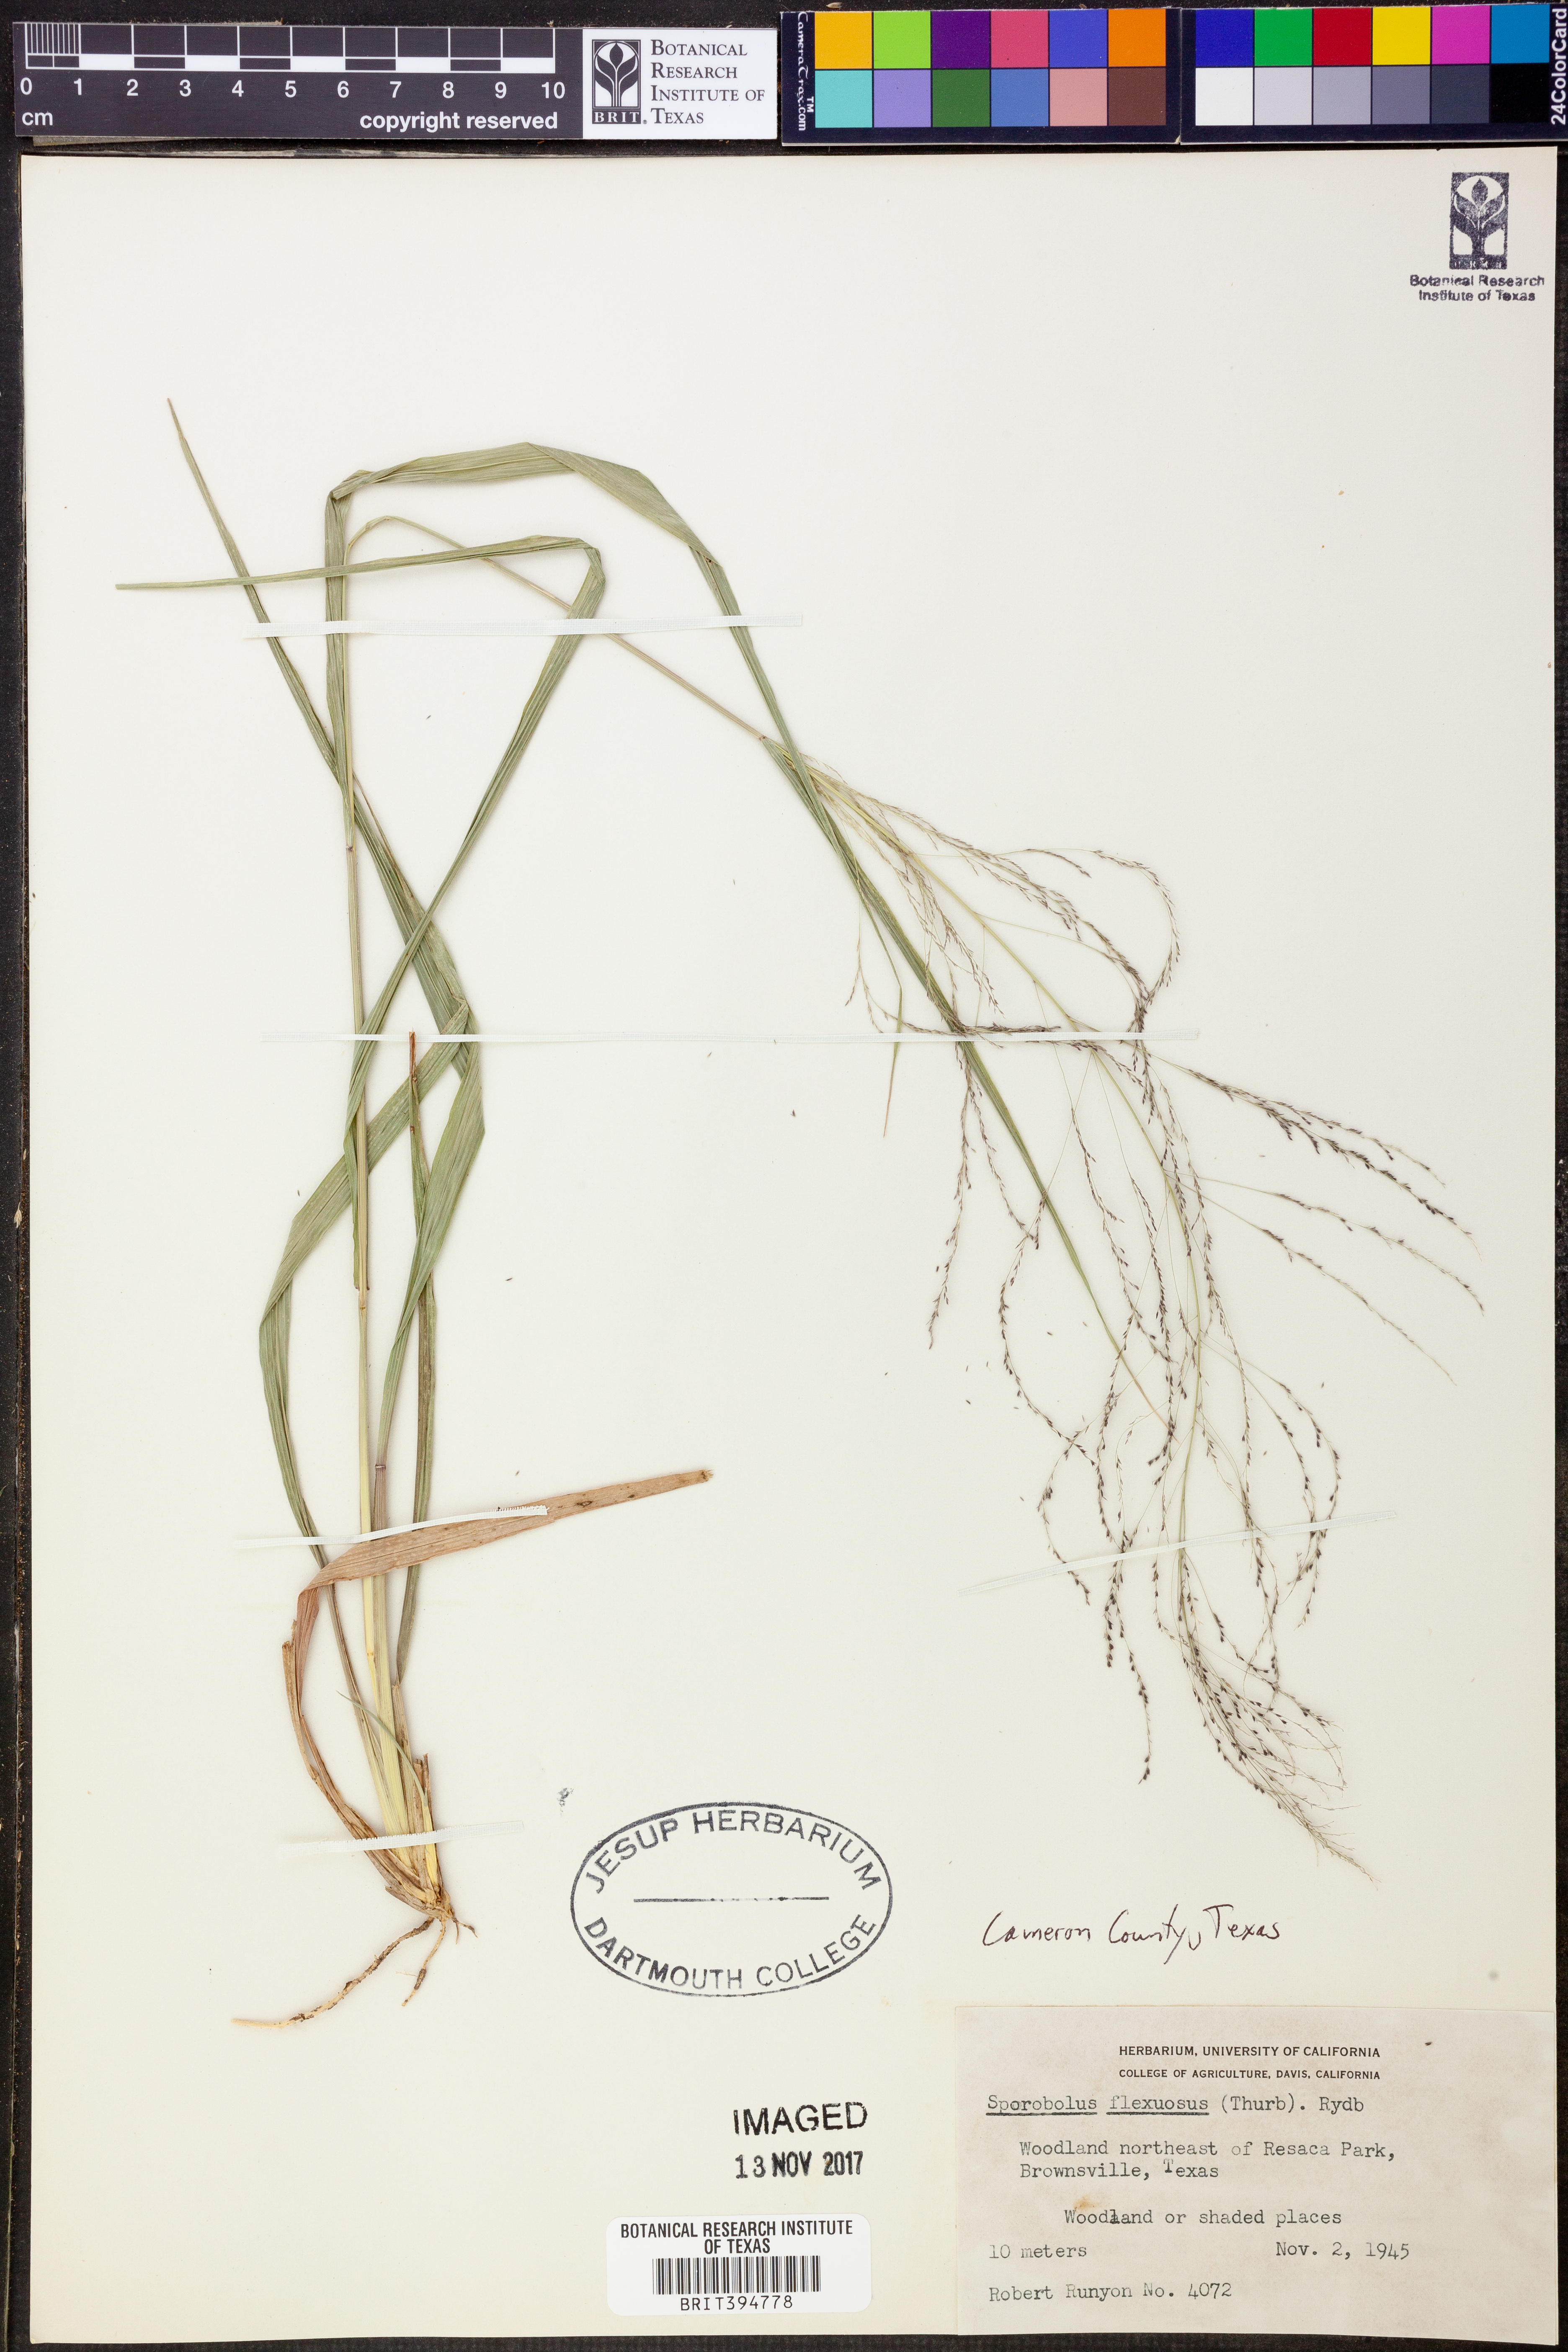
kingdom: Plantae
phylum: Tracheophyta
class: Liliopsida
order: Poales
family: Poaceae
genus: Sporobolus
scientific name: Sporobolus flexuosus
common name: Mesa dropseed
